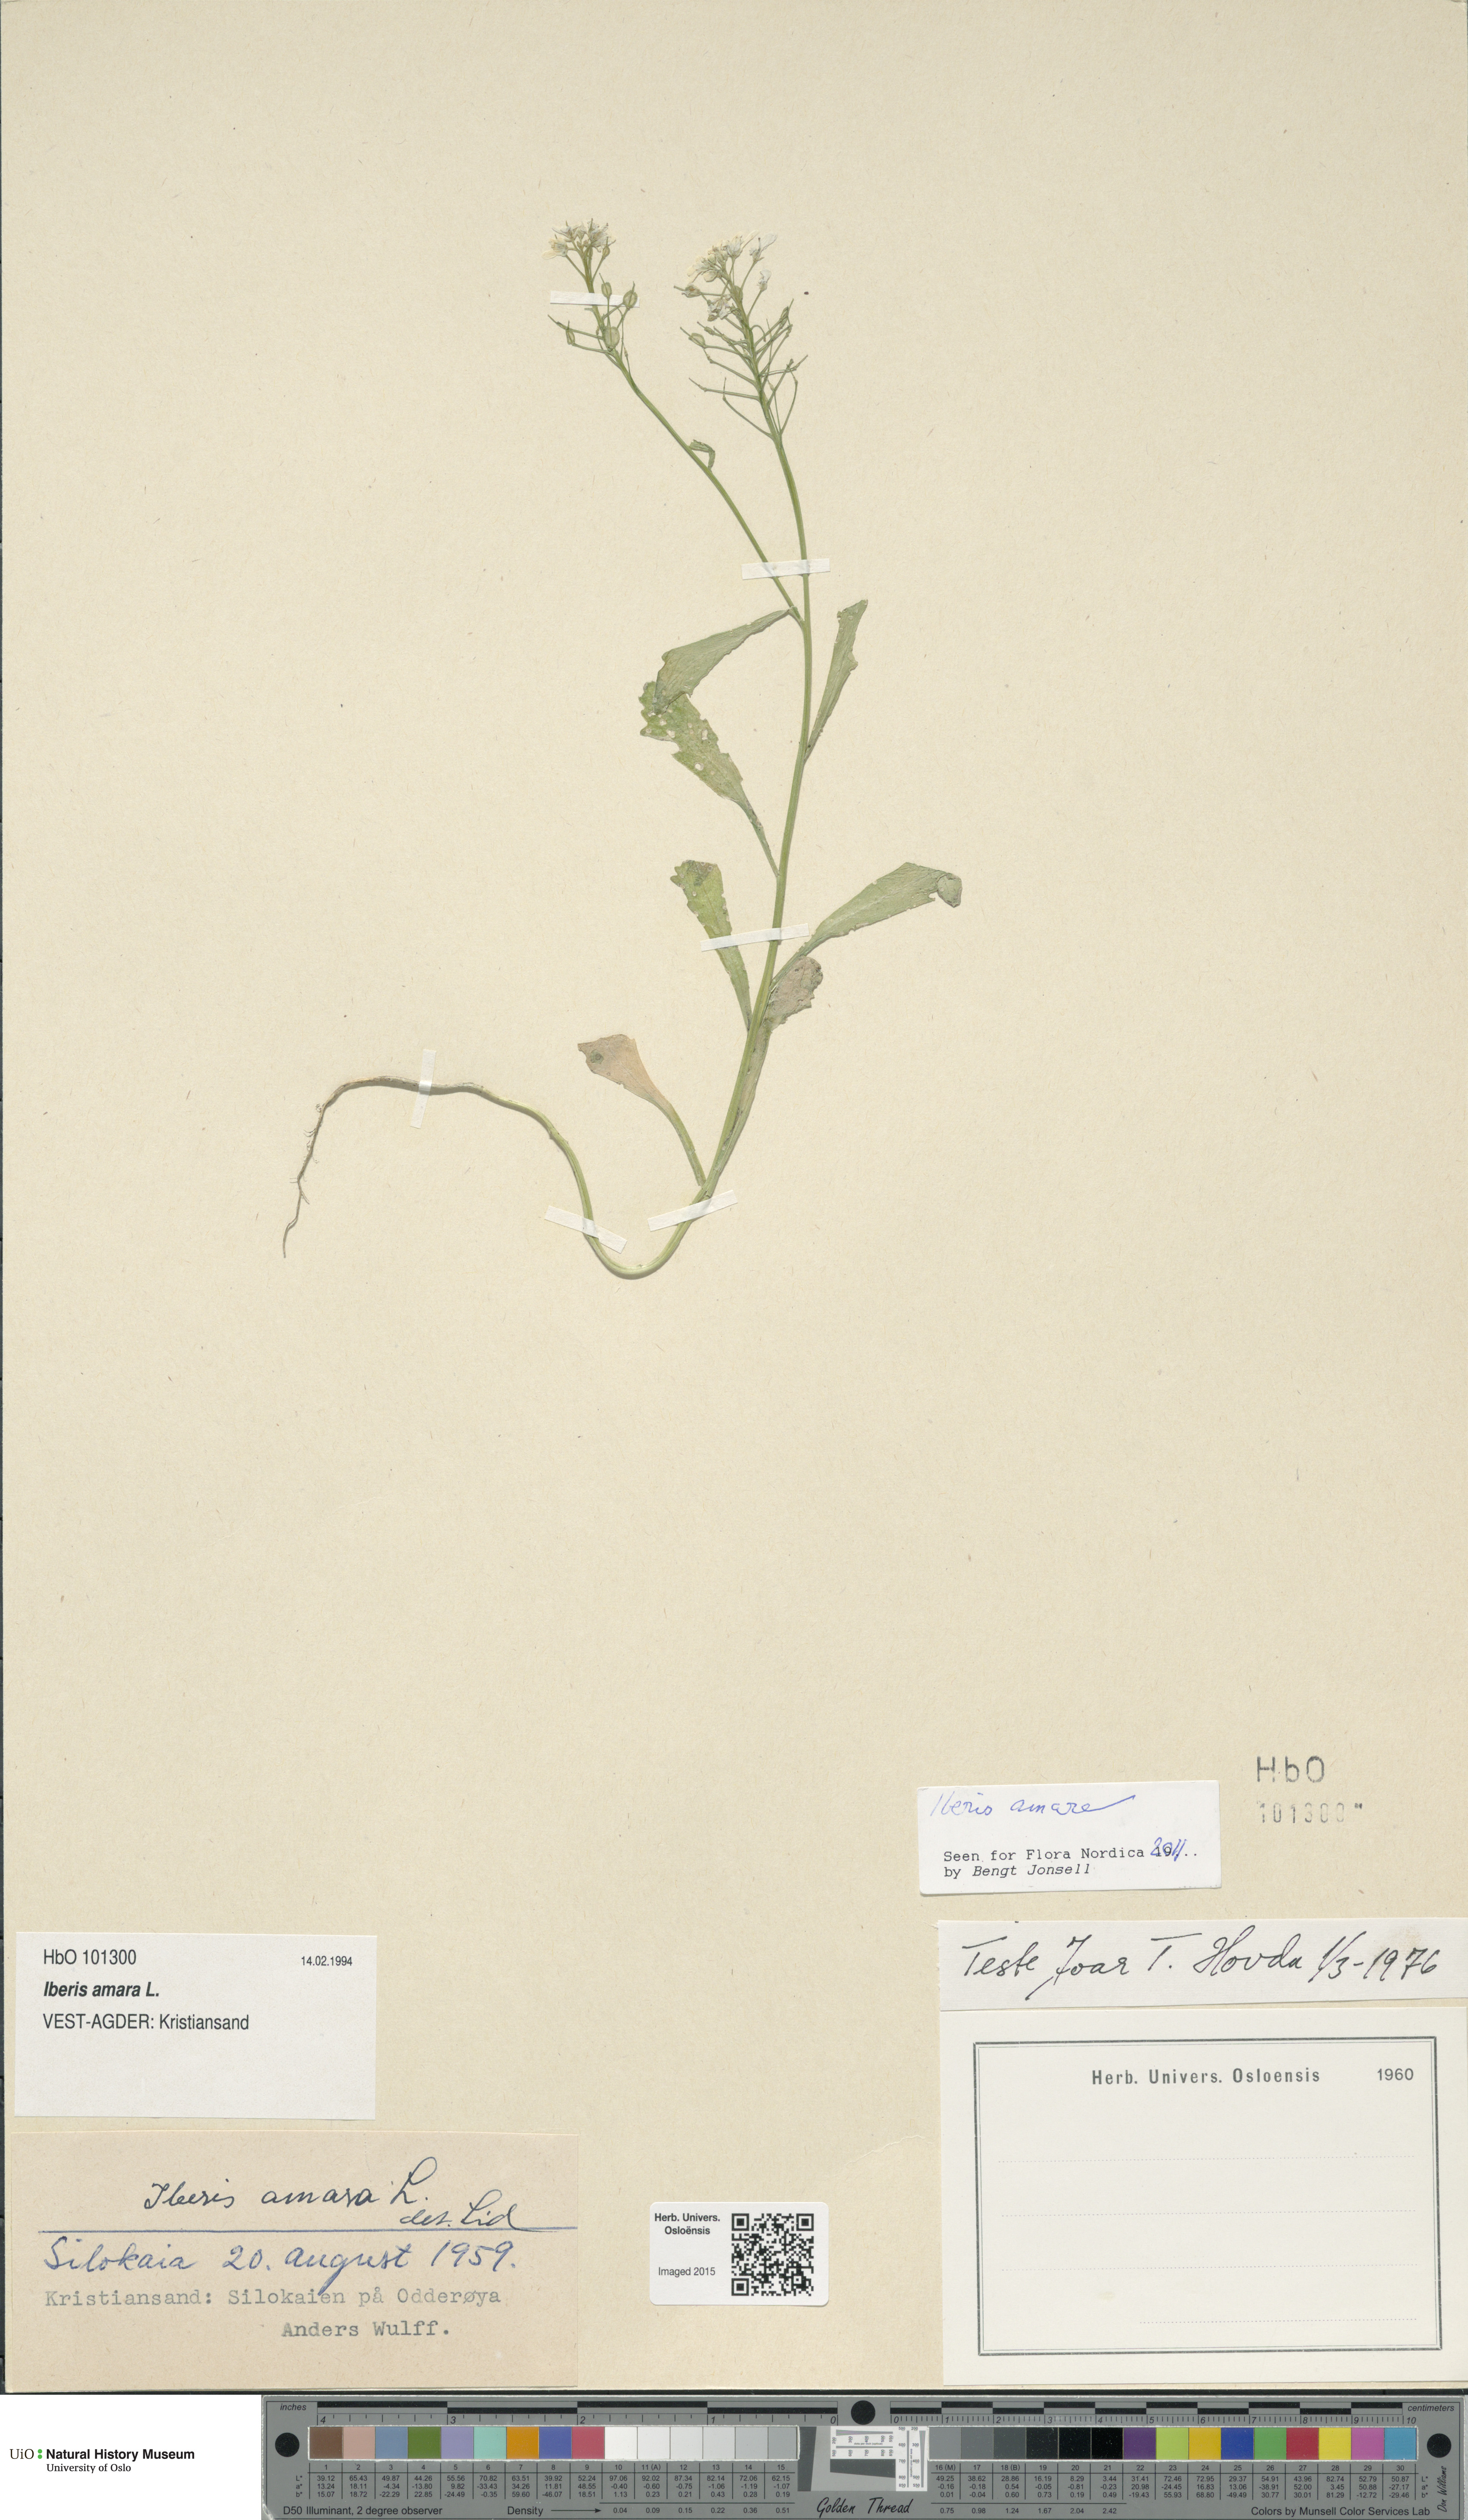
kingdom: Plantae
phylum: Tracheophyta
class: Magnoliopsida
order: Brassicales
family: Brassicaceae
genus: Iberis
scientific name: Iberis amara
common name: Annual candytuft
